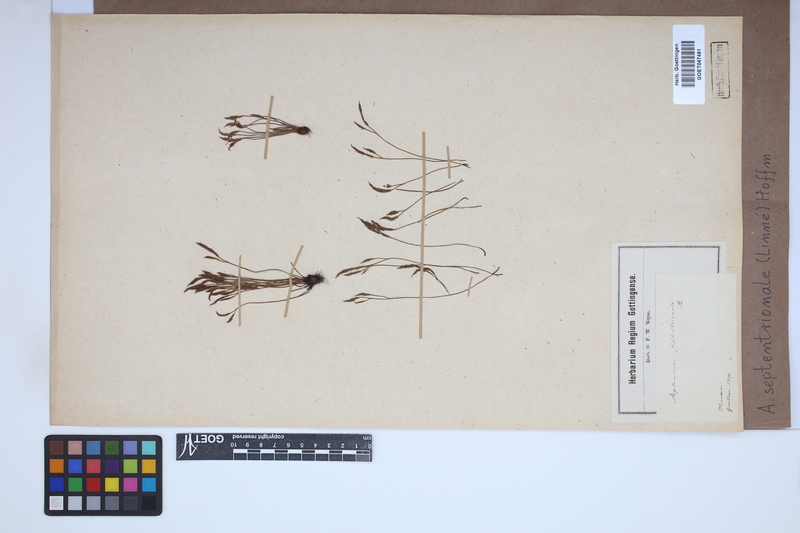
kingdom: Plantae
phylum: Tracheophyta
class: Polypodiopsida
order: Polypodiales
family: Aspleniaceae
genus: Asplenium
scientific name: Asplenium septentrionale
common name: Forked spleenwort
